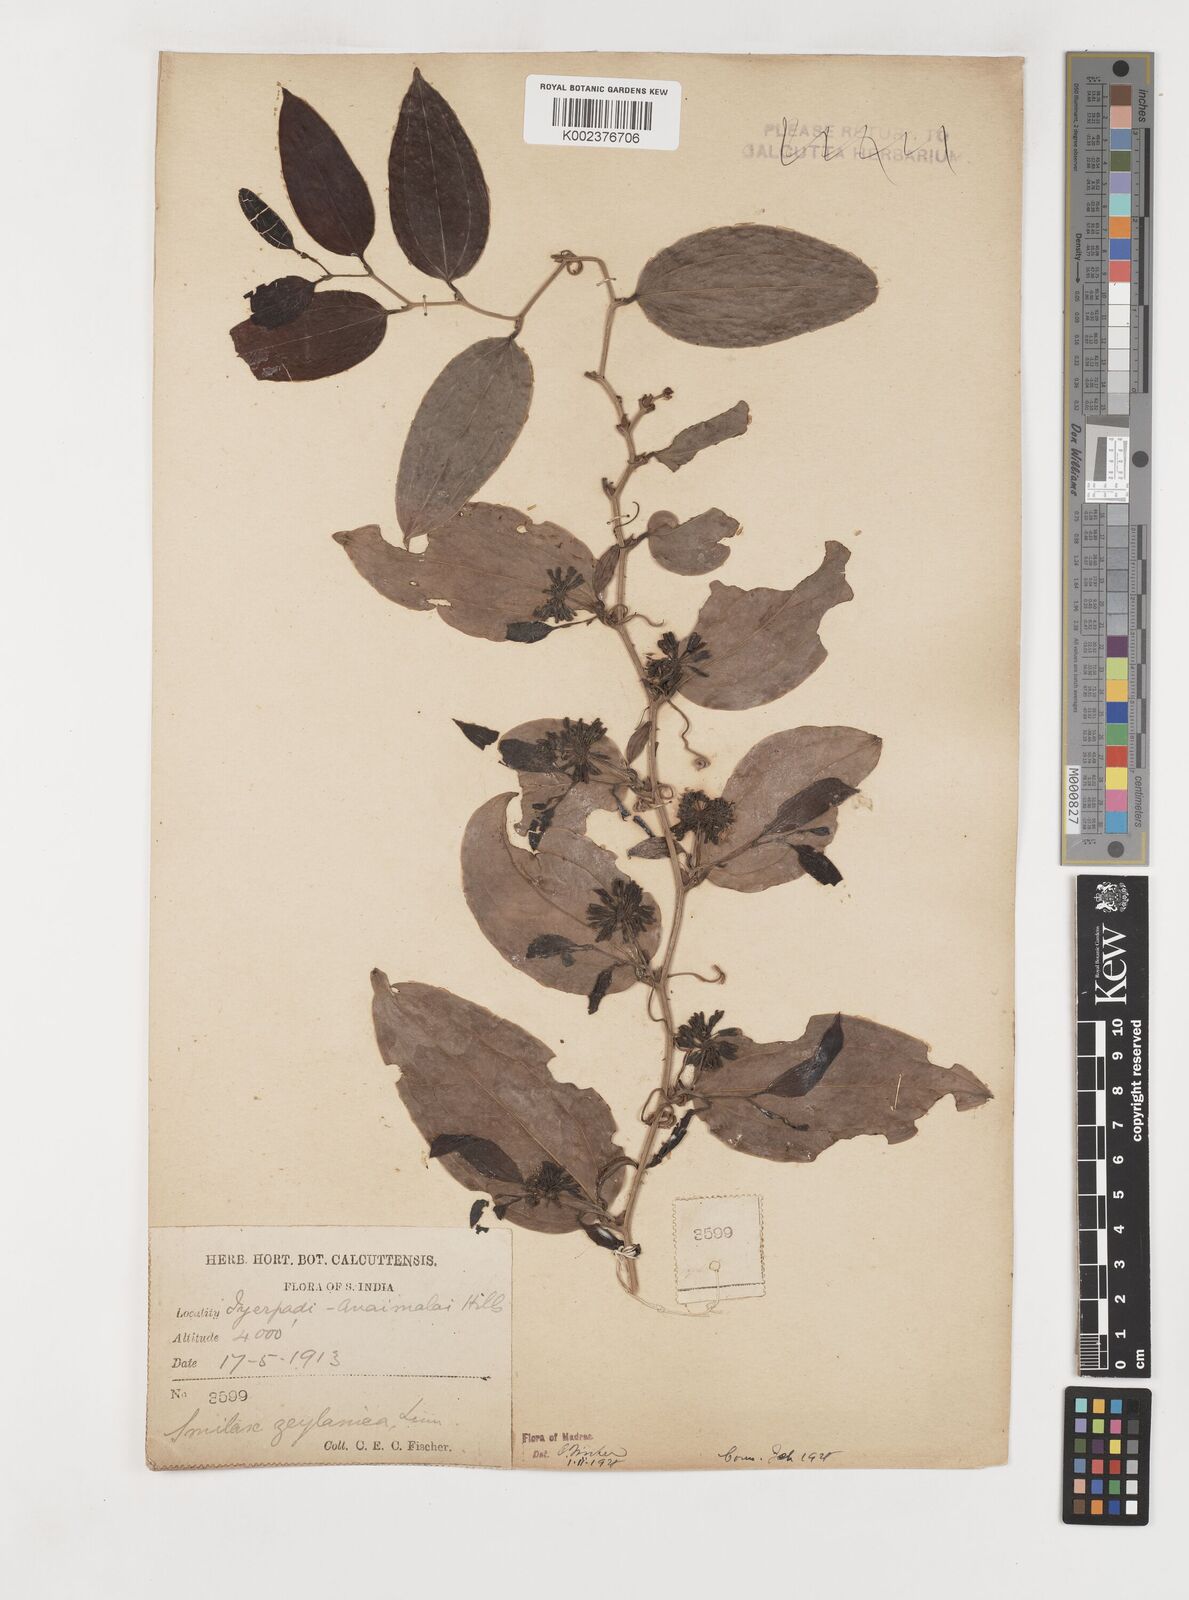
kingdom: Plantae
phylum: Tracheophyta
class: Liliopsida
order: Liliales
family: Smilacaceae
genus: Smilax
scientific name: Smilax zeylanica
